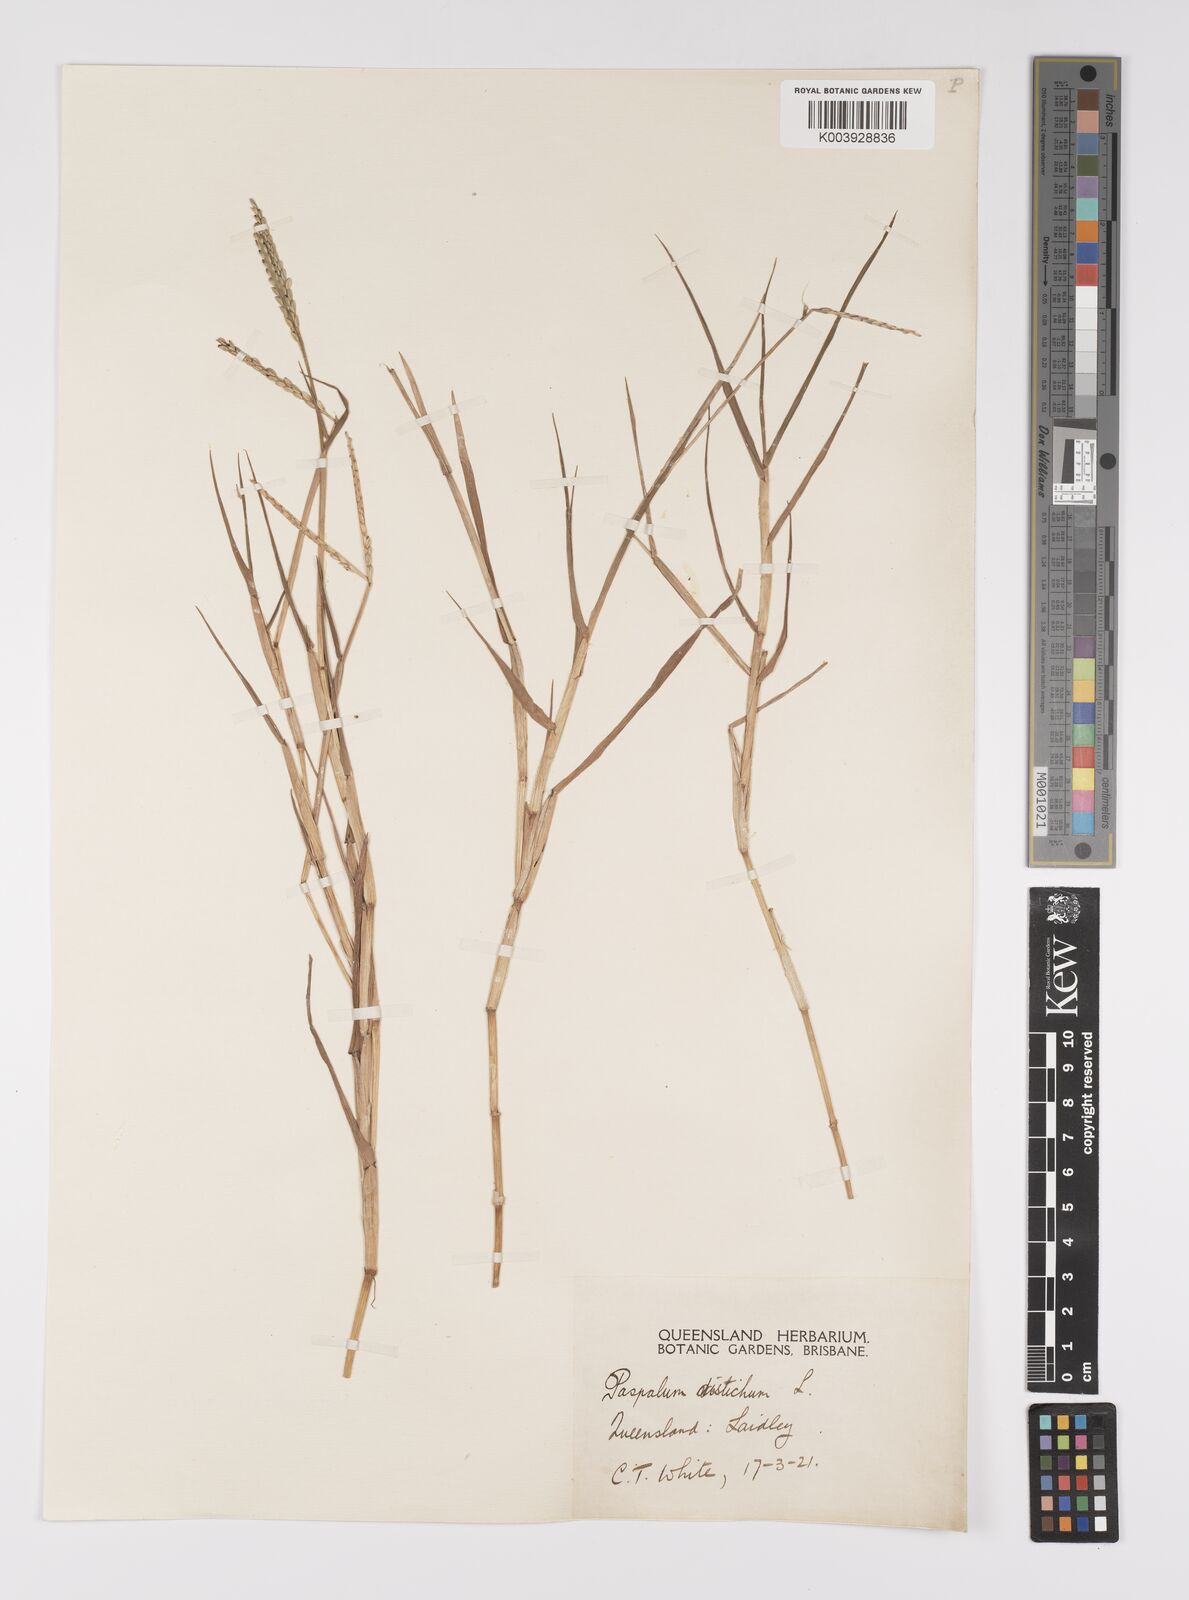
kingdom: Plantae
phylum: Tracheophyta
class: Liliopsida
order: Poales
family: Poaceae
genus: Paspalum
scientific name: Paspalum distichum
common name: Knotgrass
